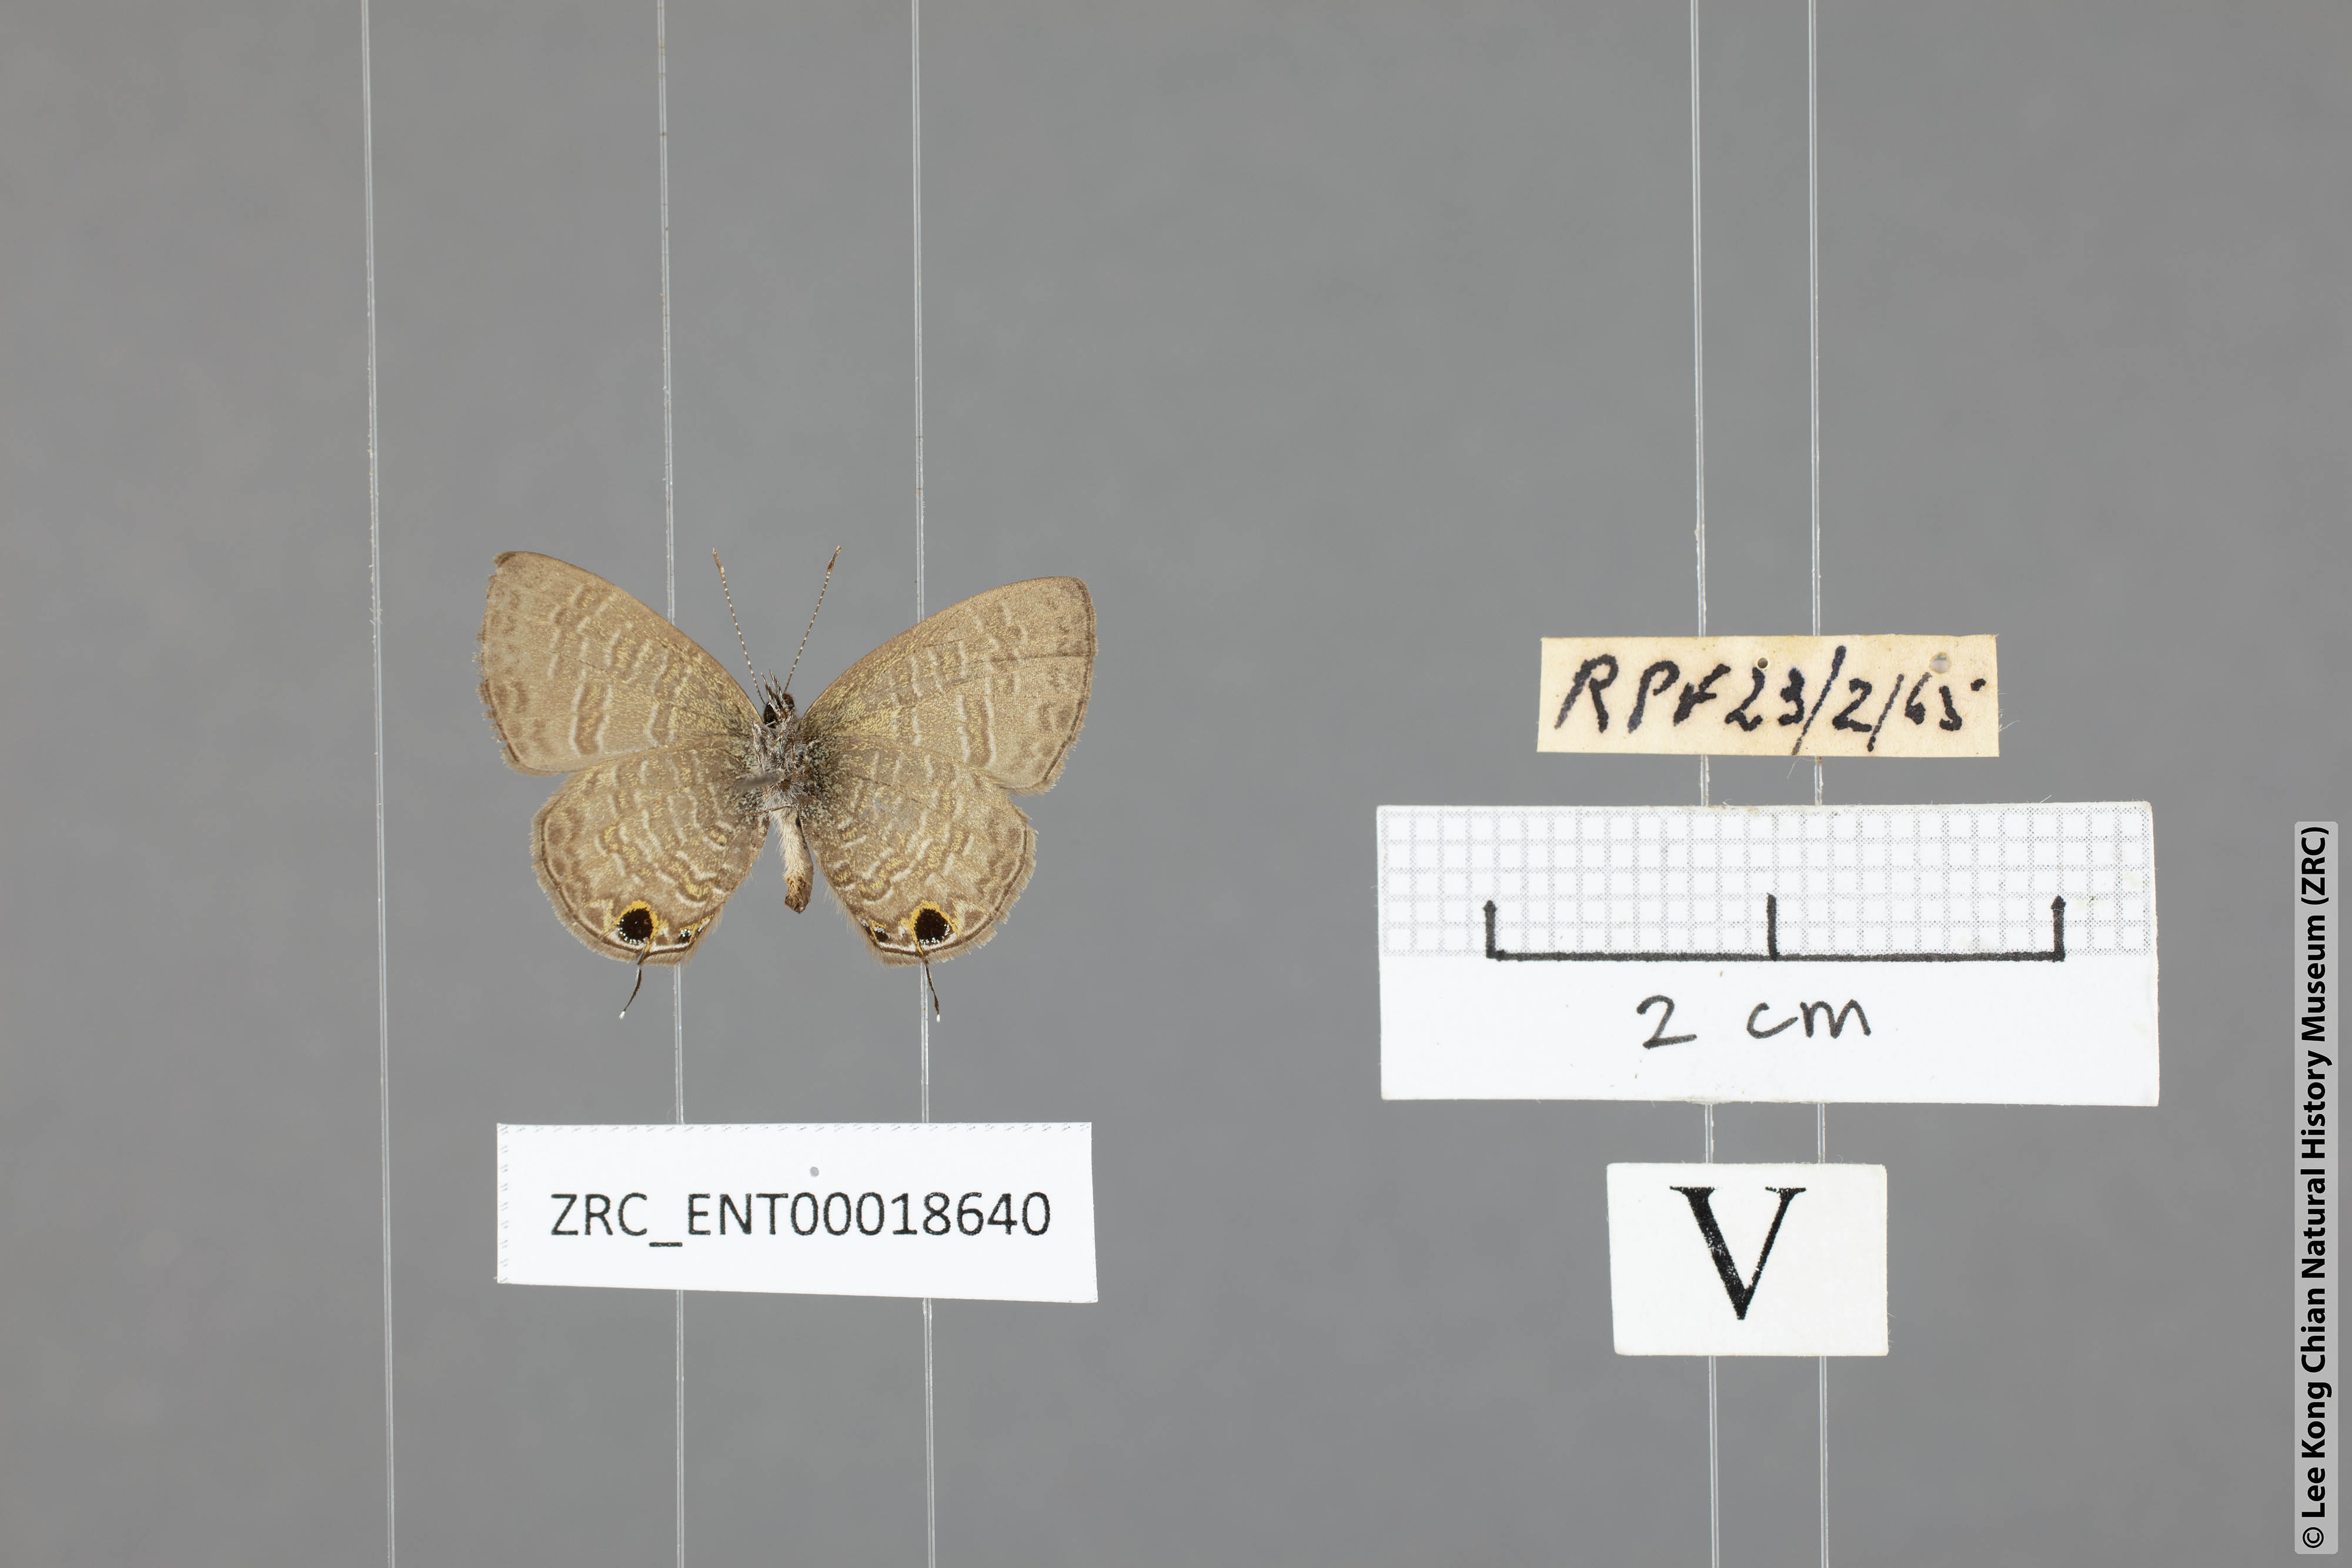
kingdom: Animalia
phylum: Arthropoda
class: Insecta
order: Lepidoptera
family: Lycaenidae
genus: Prosotas
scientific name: Prosotas nora
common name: Common line blue
